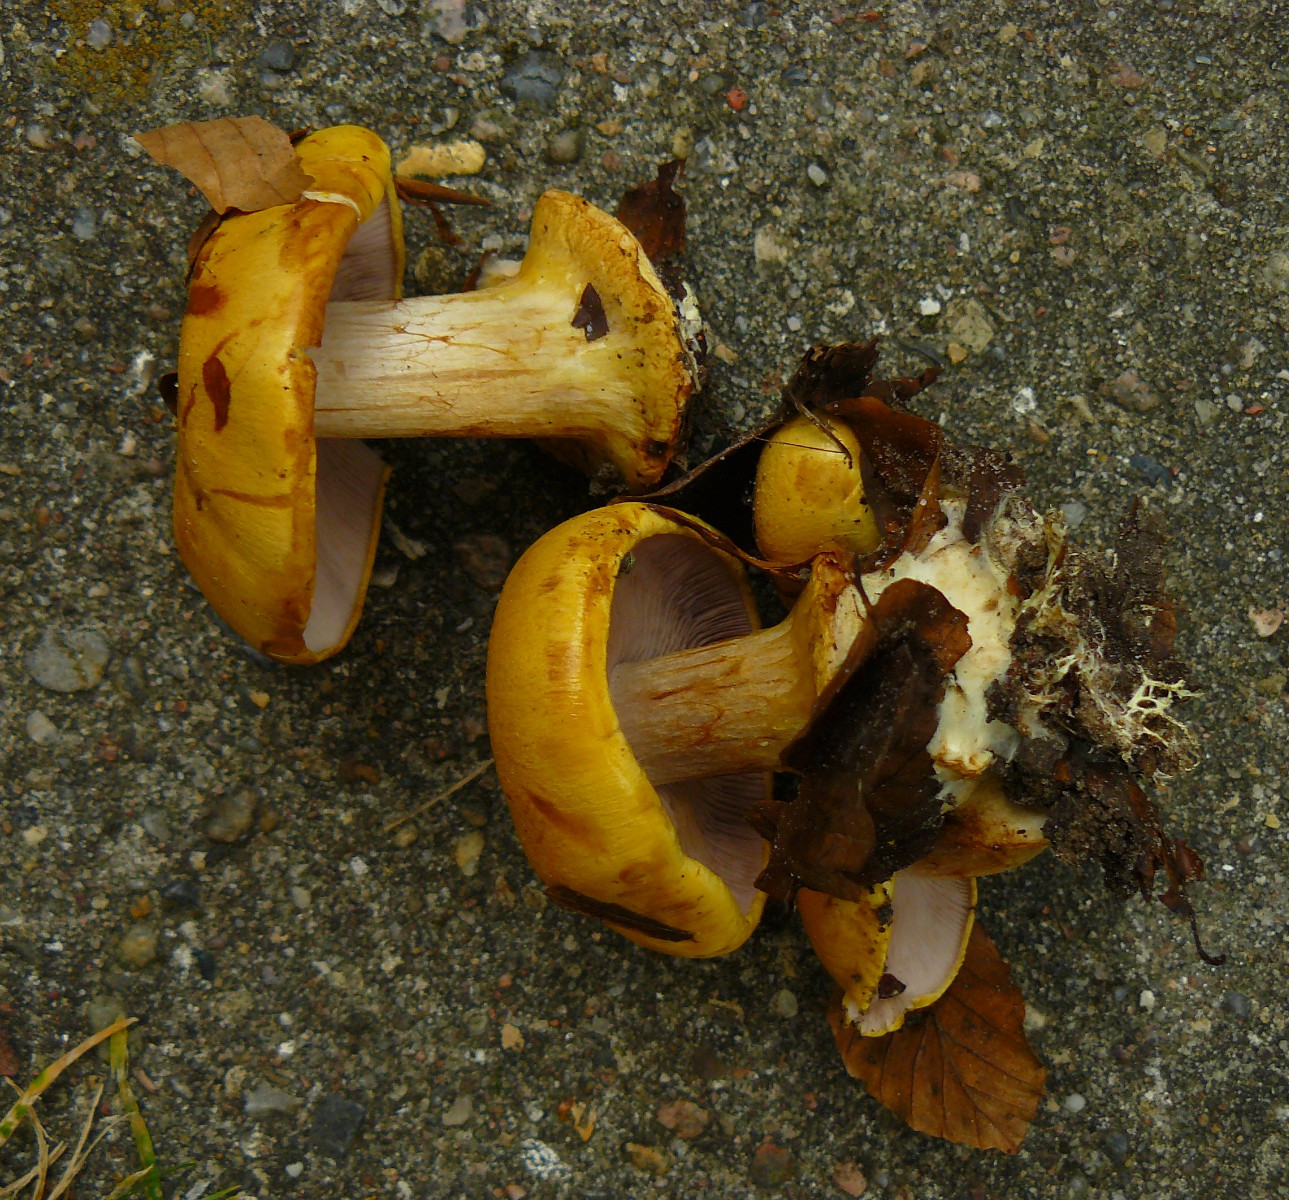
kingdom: Fungi
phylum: Basidiomycota
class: Agaricomycetes
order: Agaricales
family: Cortinariaceae
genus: Calonarius
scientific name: Calonarius callochrous
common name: lillabladet slørhat
